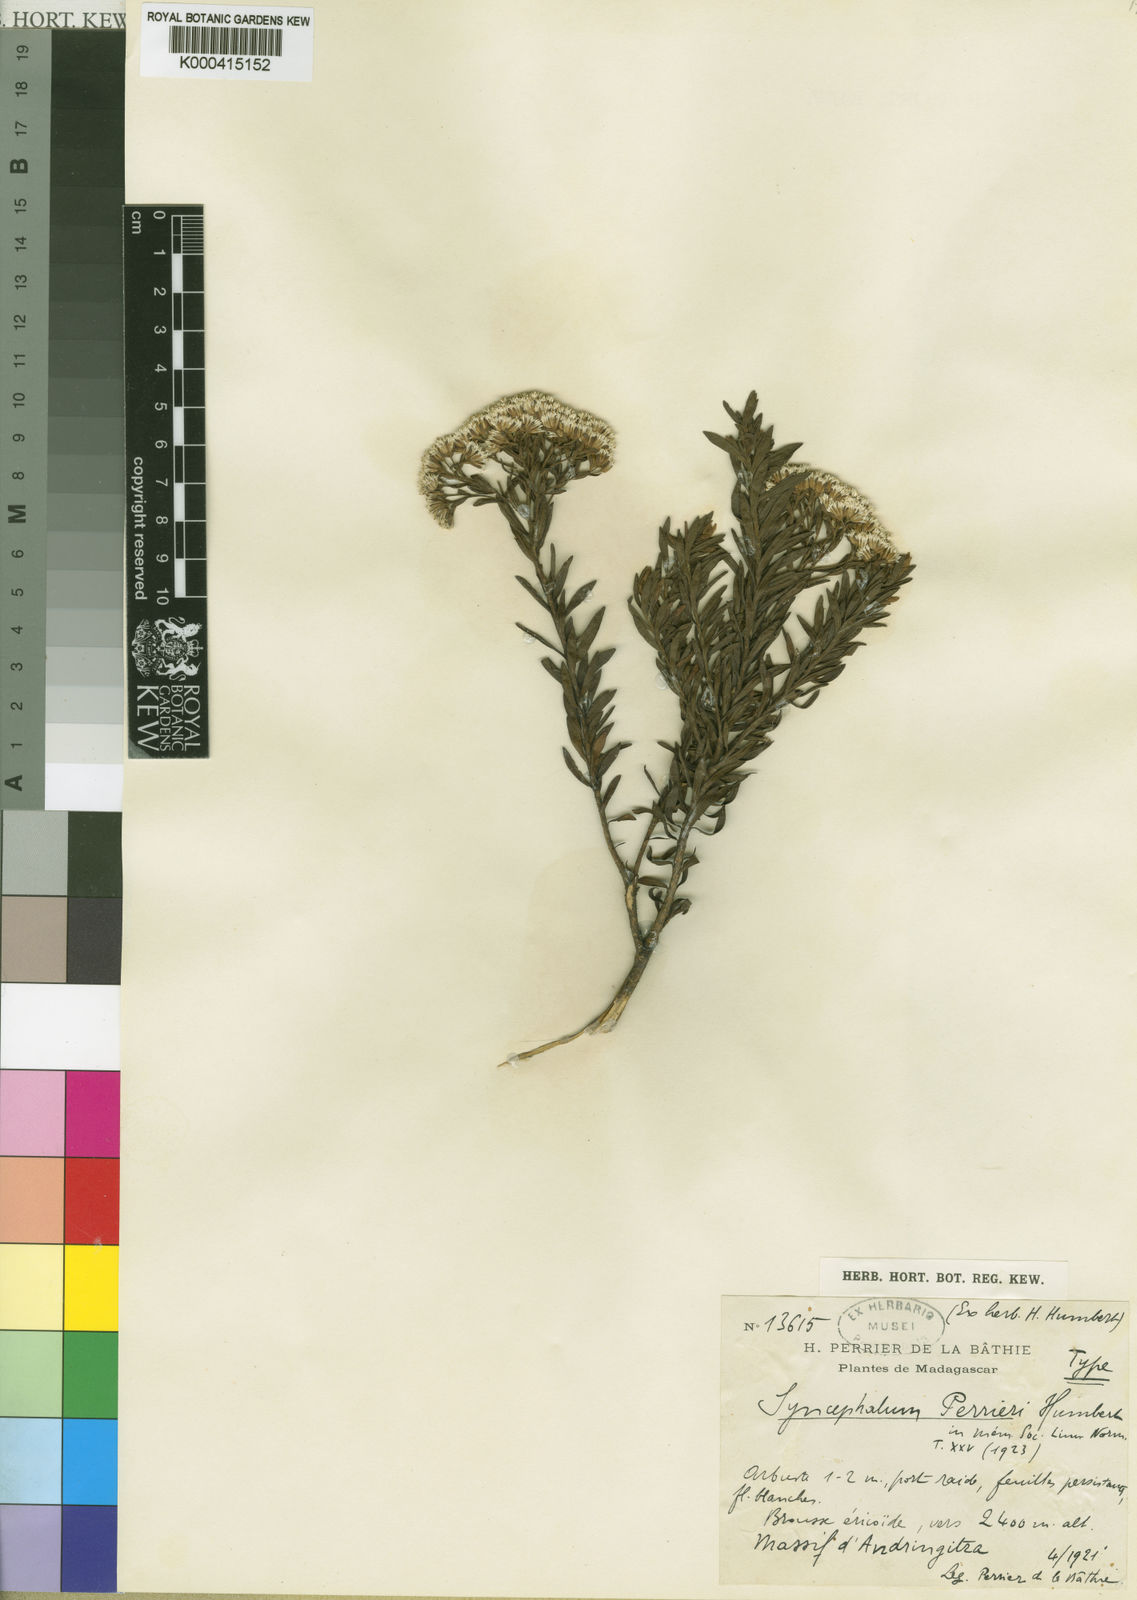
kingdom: Plantae
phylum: Tracheophyta
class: Magnoliopsida
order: Asterales
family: Asteraceae
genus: Syncephalum
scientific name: Syncephalum arbutifolium
